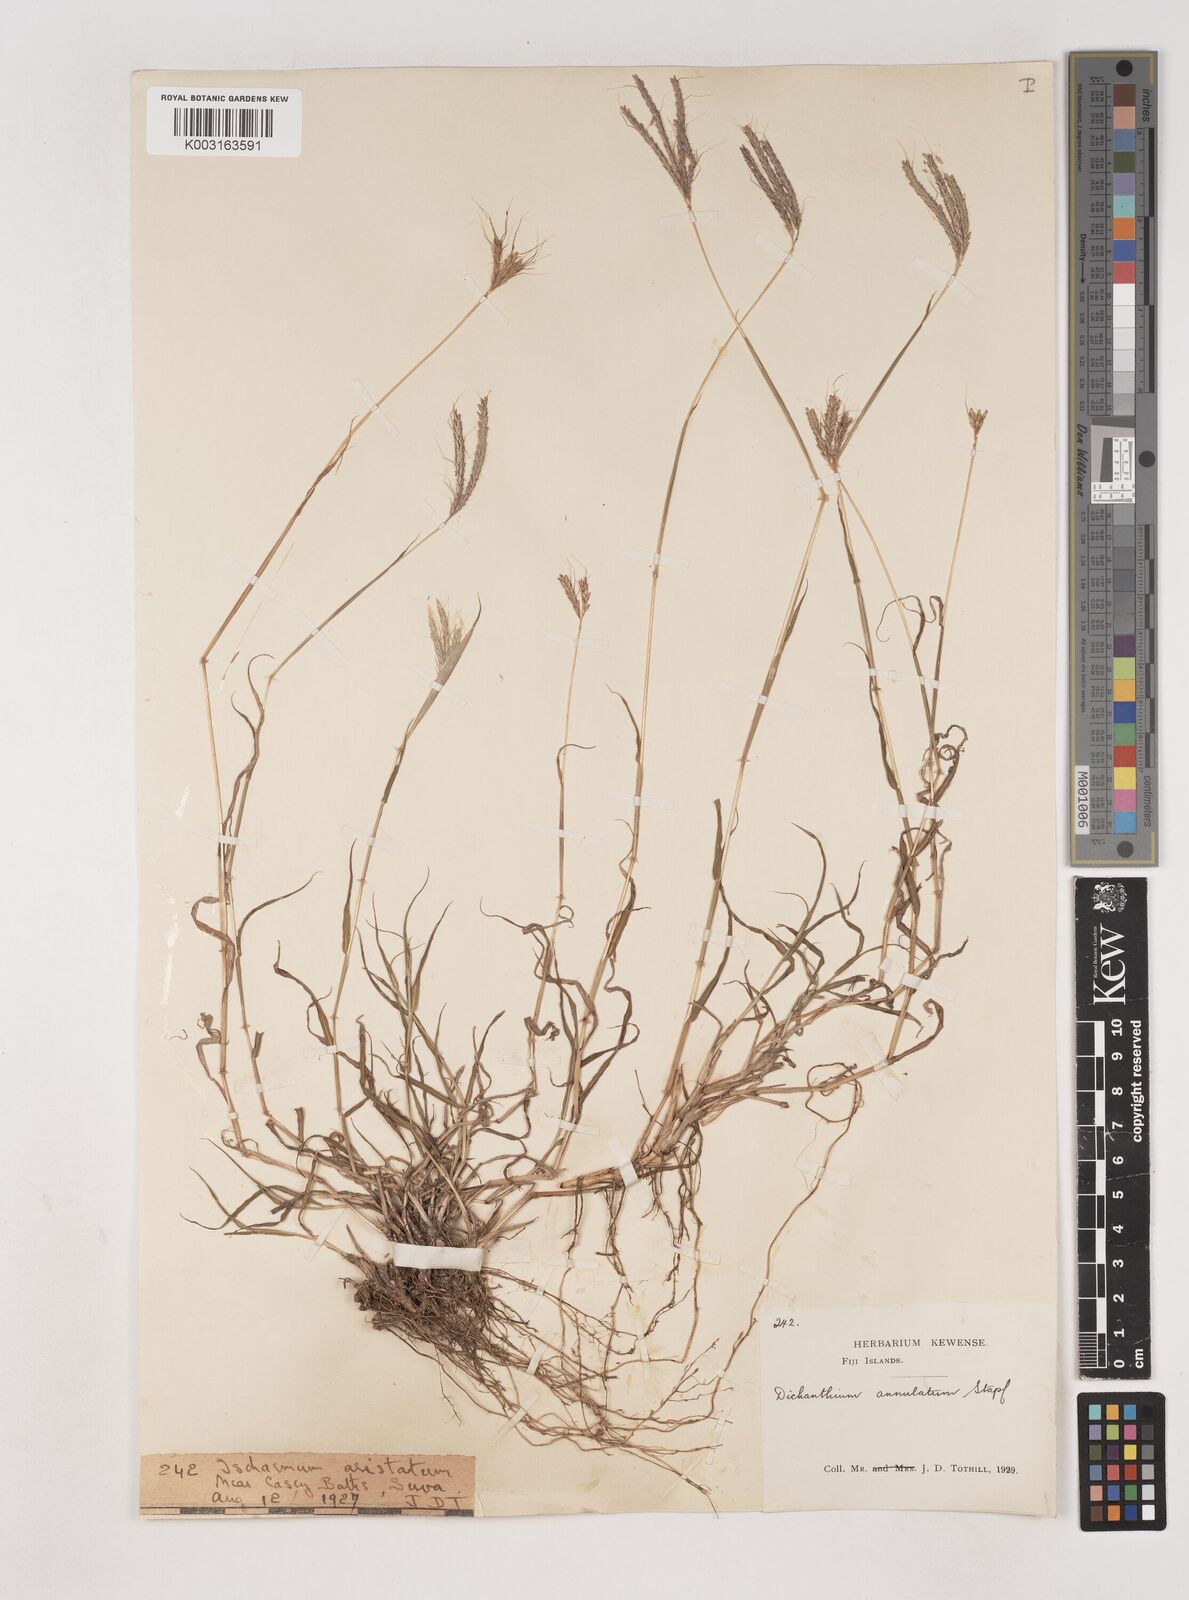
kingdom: Plantae
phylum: Tracheophyta
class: Liliopsida
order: Poales
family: Poaceae
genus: Dichanthium
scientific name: Dichanthium annulatum
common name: Kleberg's bluestem
